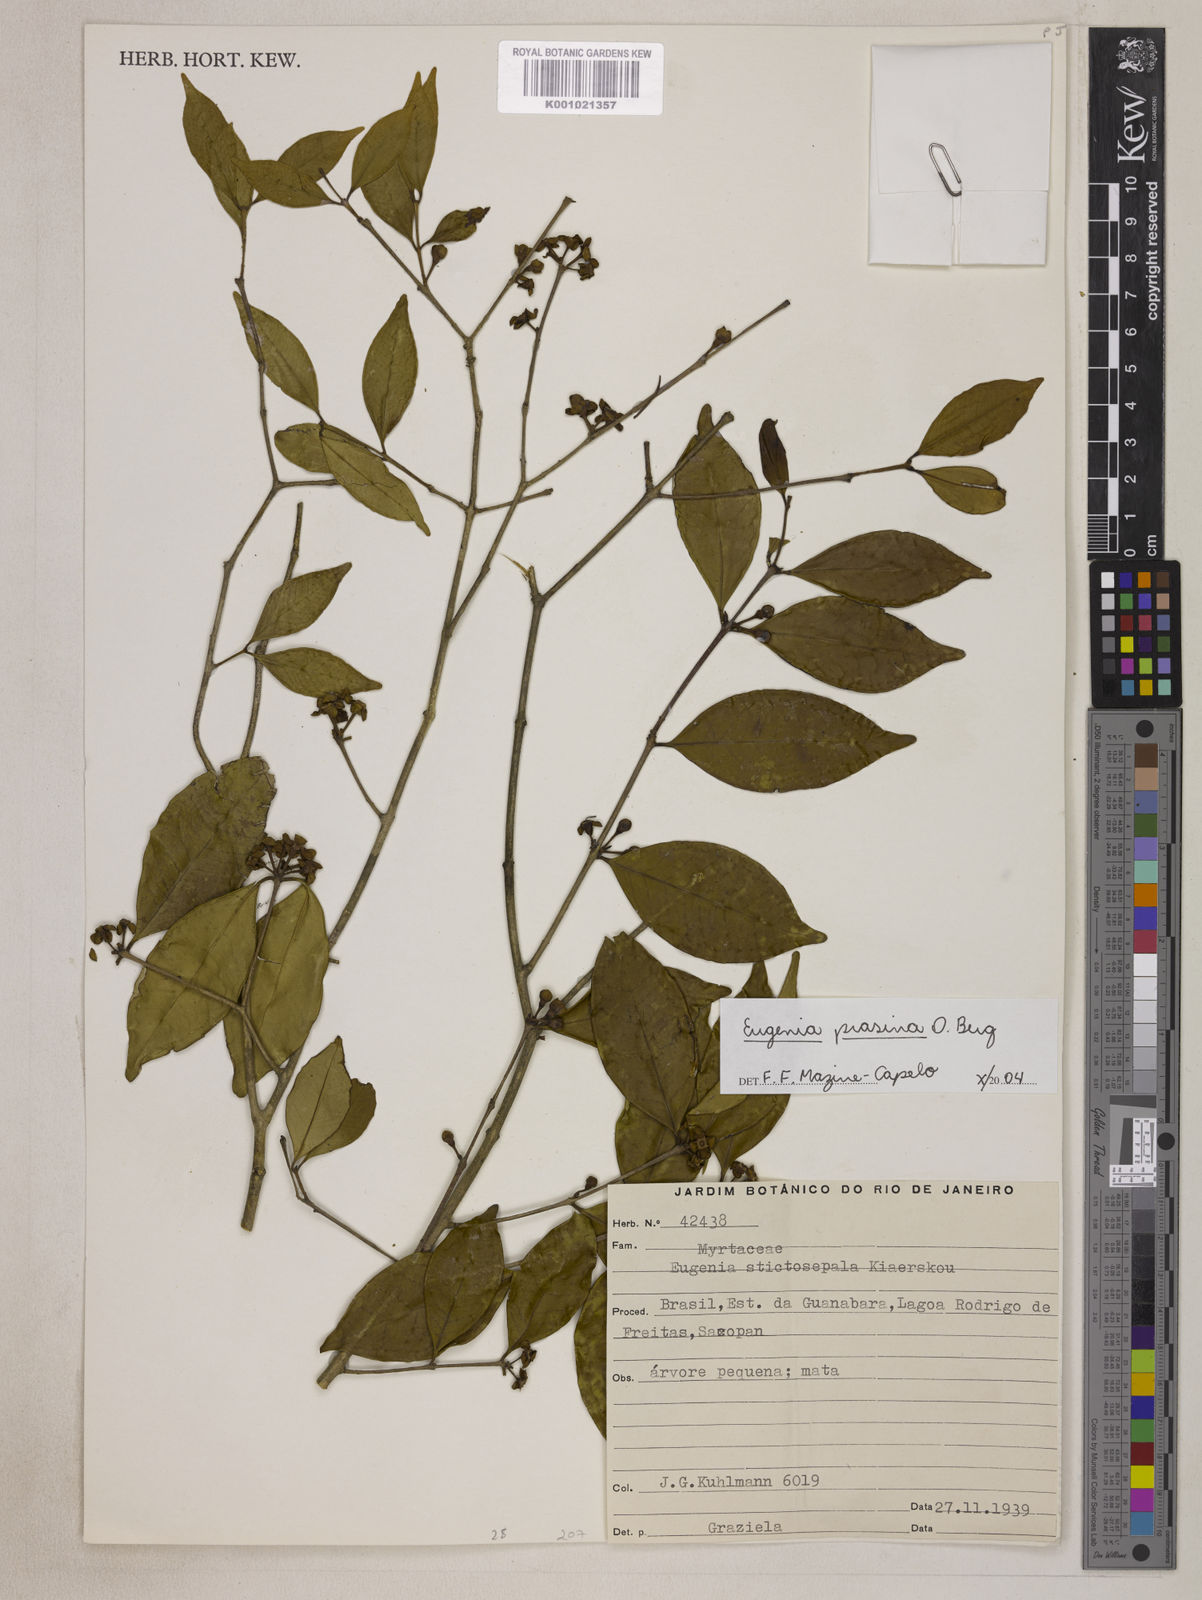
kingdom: Plantae
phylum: Tracheophyta
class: Magnoliopsida
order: Myrtales
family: Myrtaceae
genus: Eugenia
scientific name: Eugenia prasina
